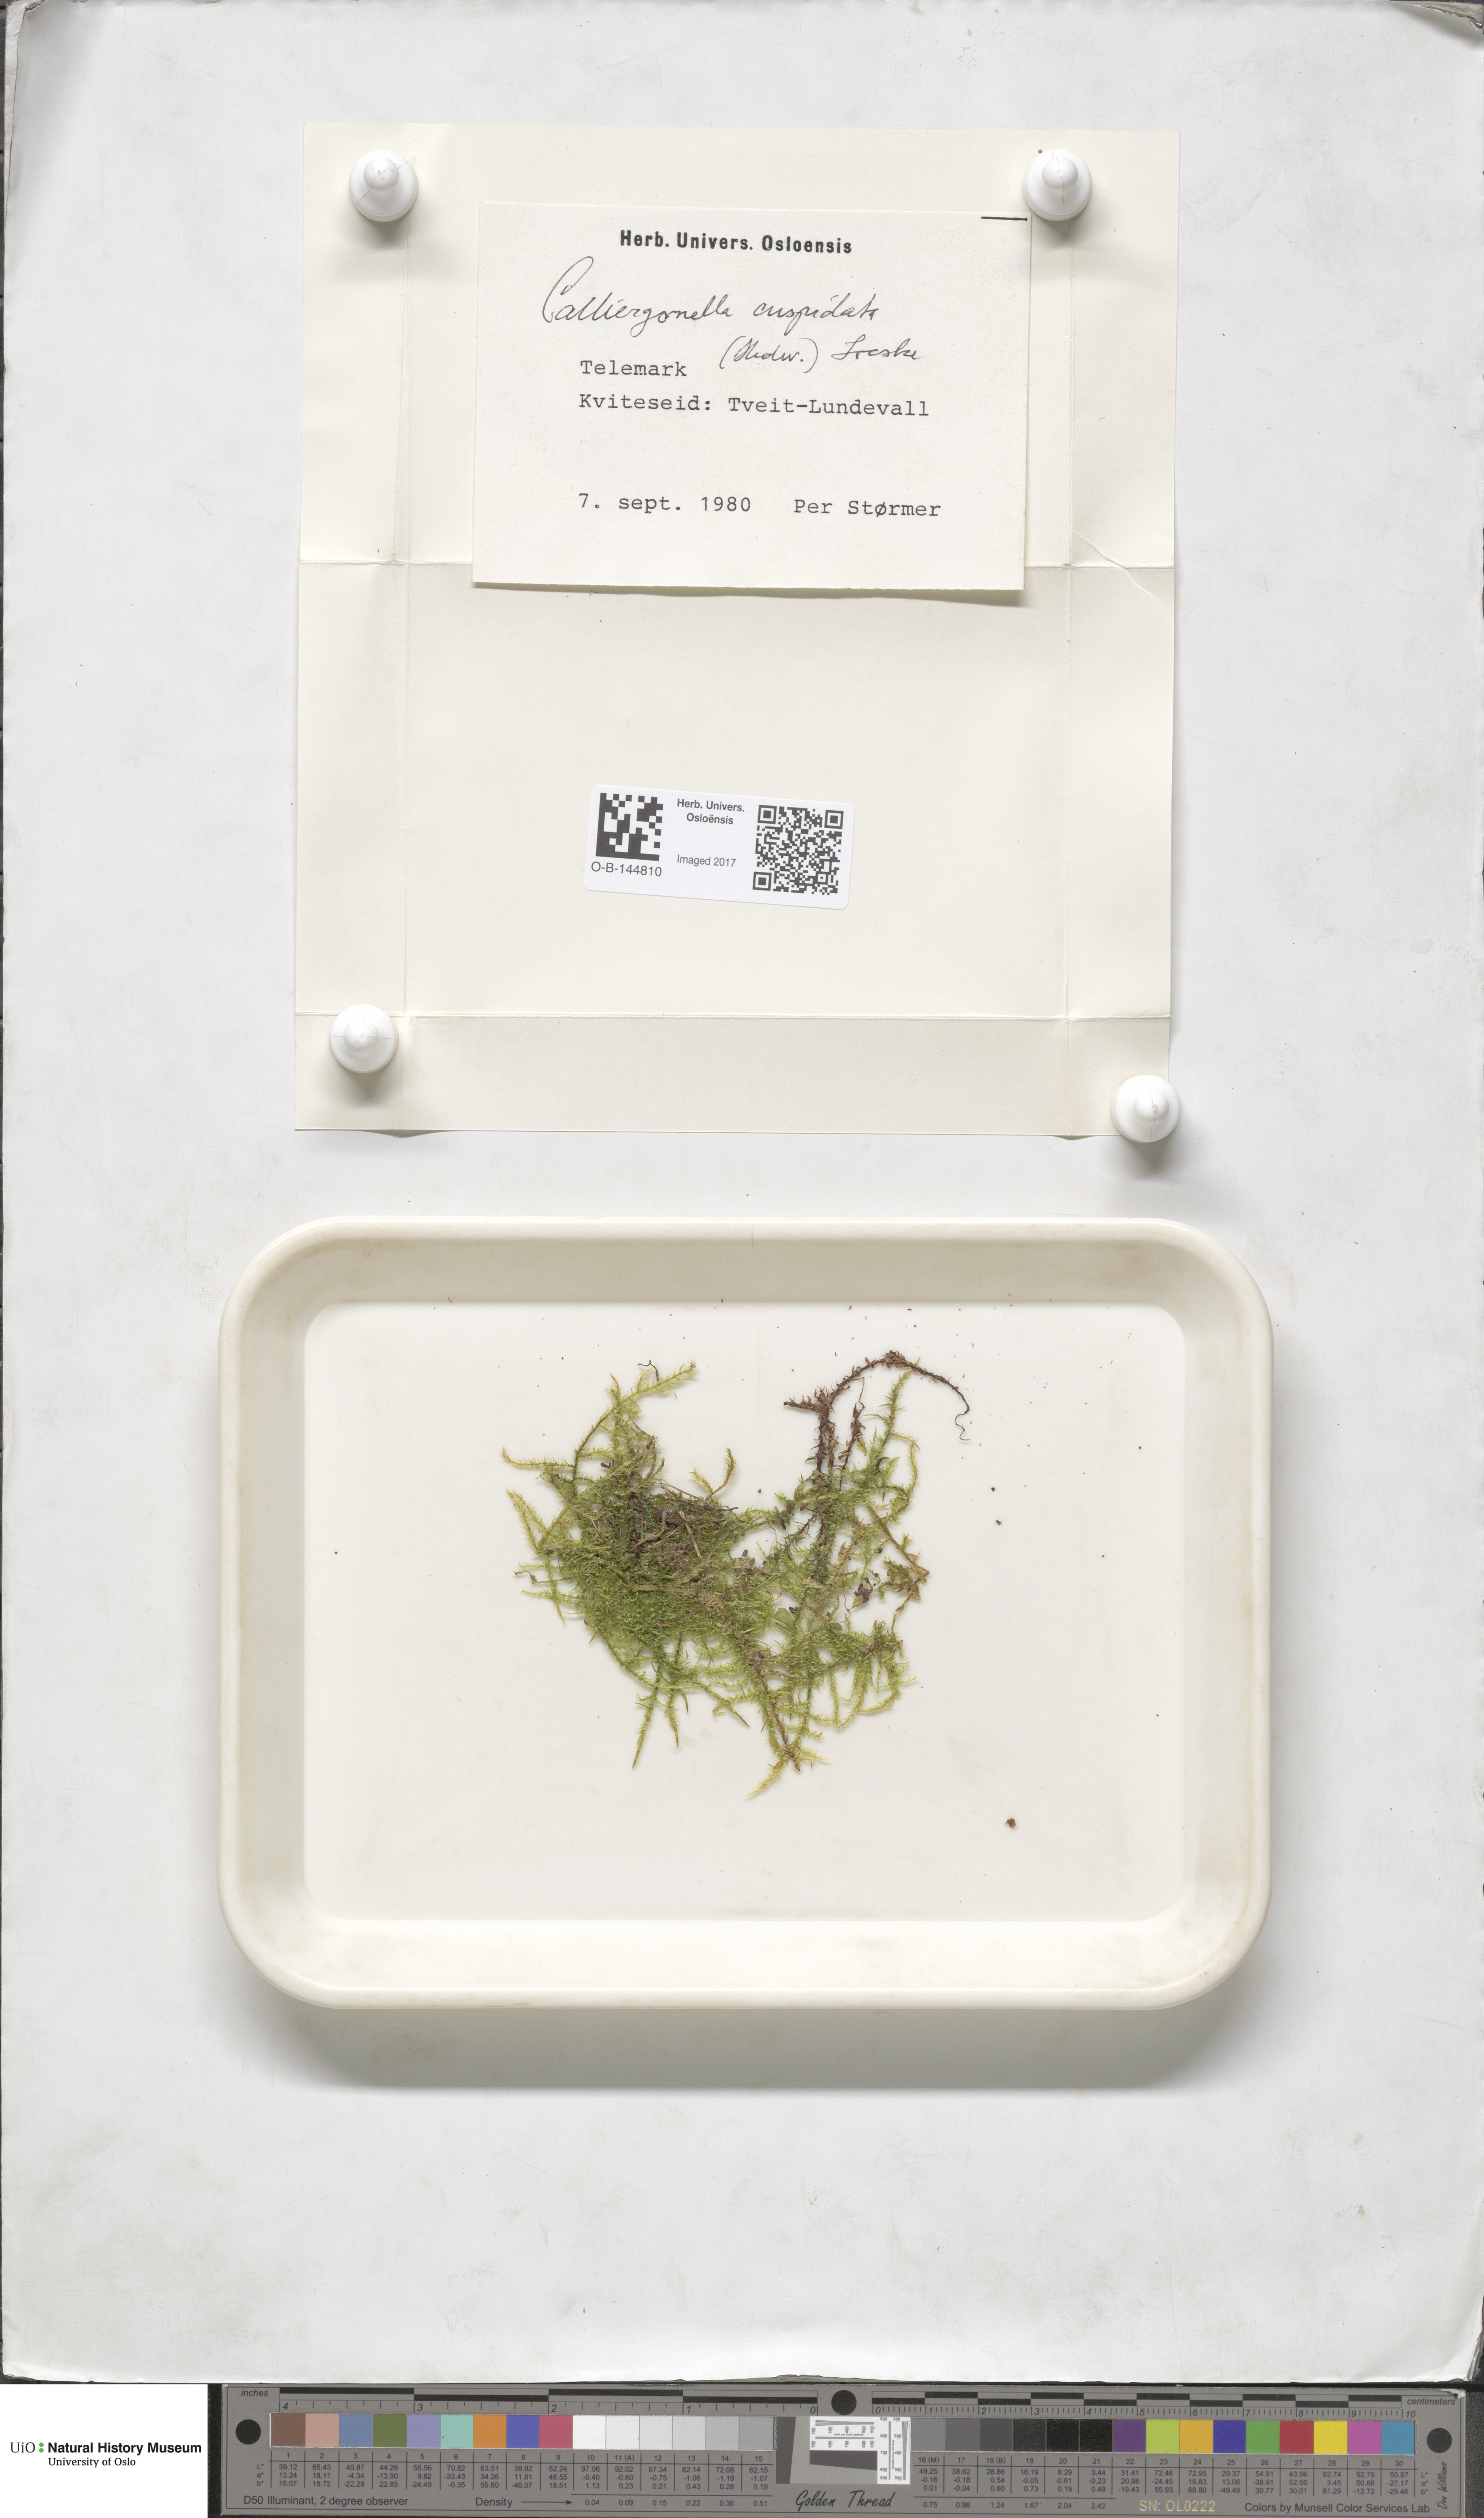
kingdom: Plantae
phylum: Bryophyta
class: Bryopsida
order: Hypnales
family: Pylaisiaceae
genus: Calliergonella
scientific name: Calliergonella cuspidata
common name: Common large wetland moss
